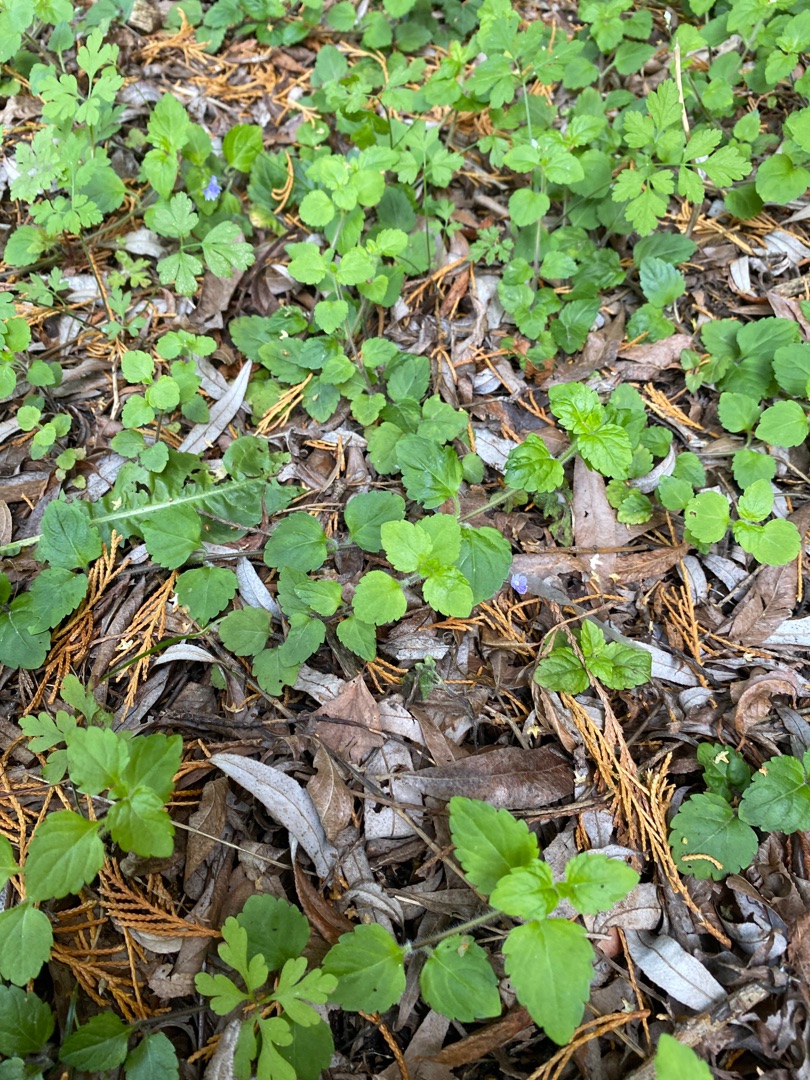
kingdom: Plantae
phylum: Tracheophyta
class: Magnoliopsida
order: Lamiales
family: Plantaginaceae
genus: Veronica
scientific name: Veronica montana
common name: Bjerg-ærenpris
